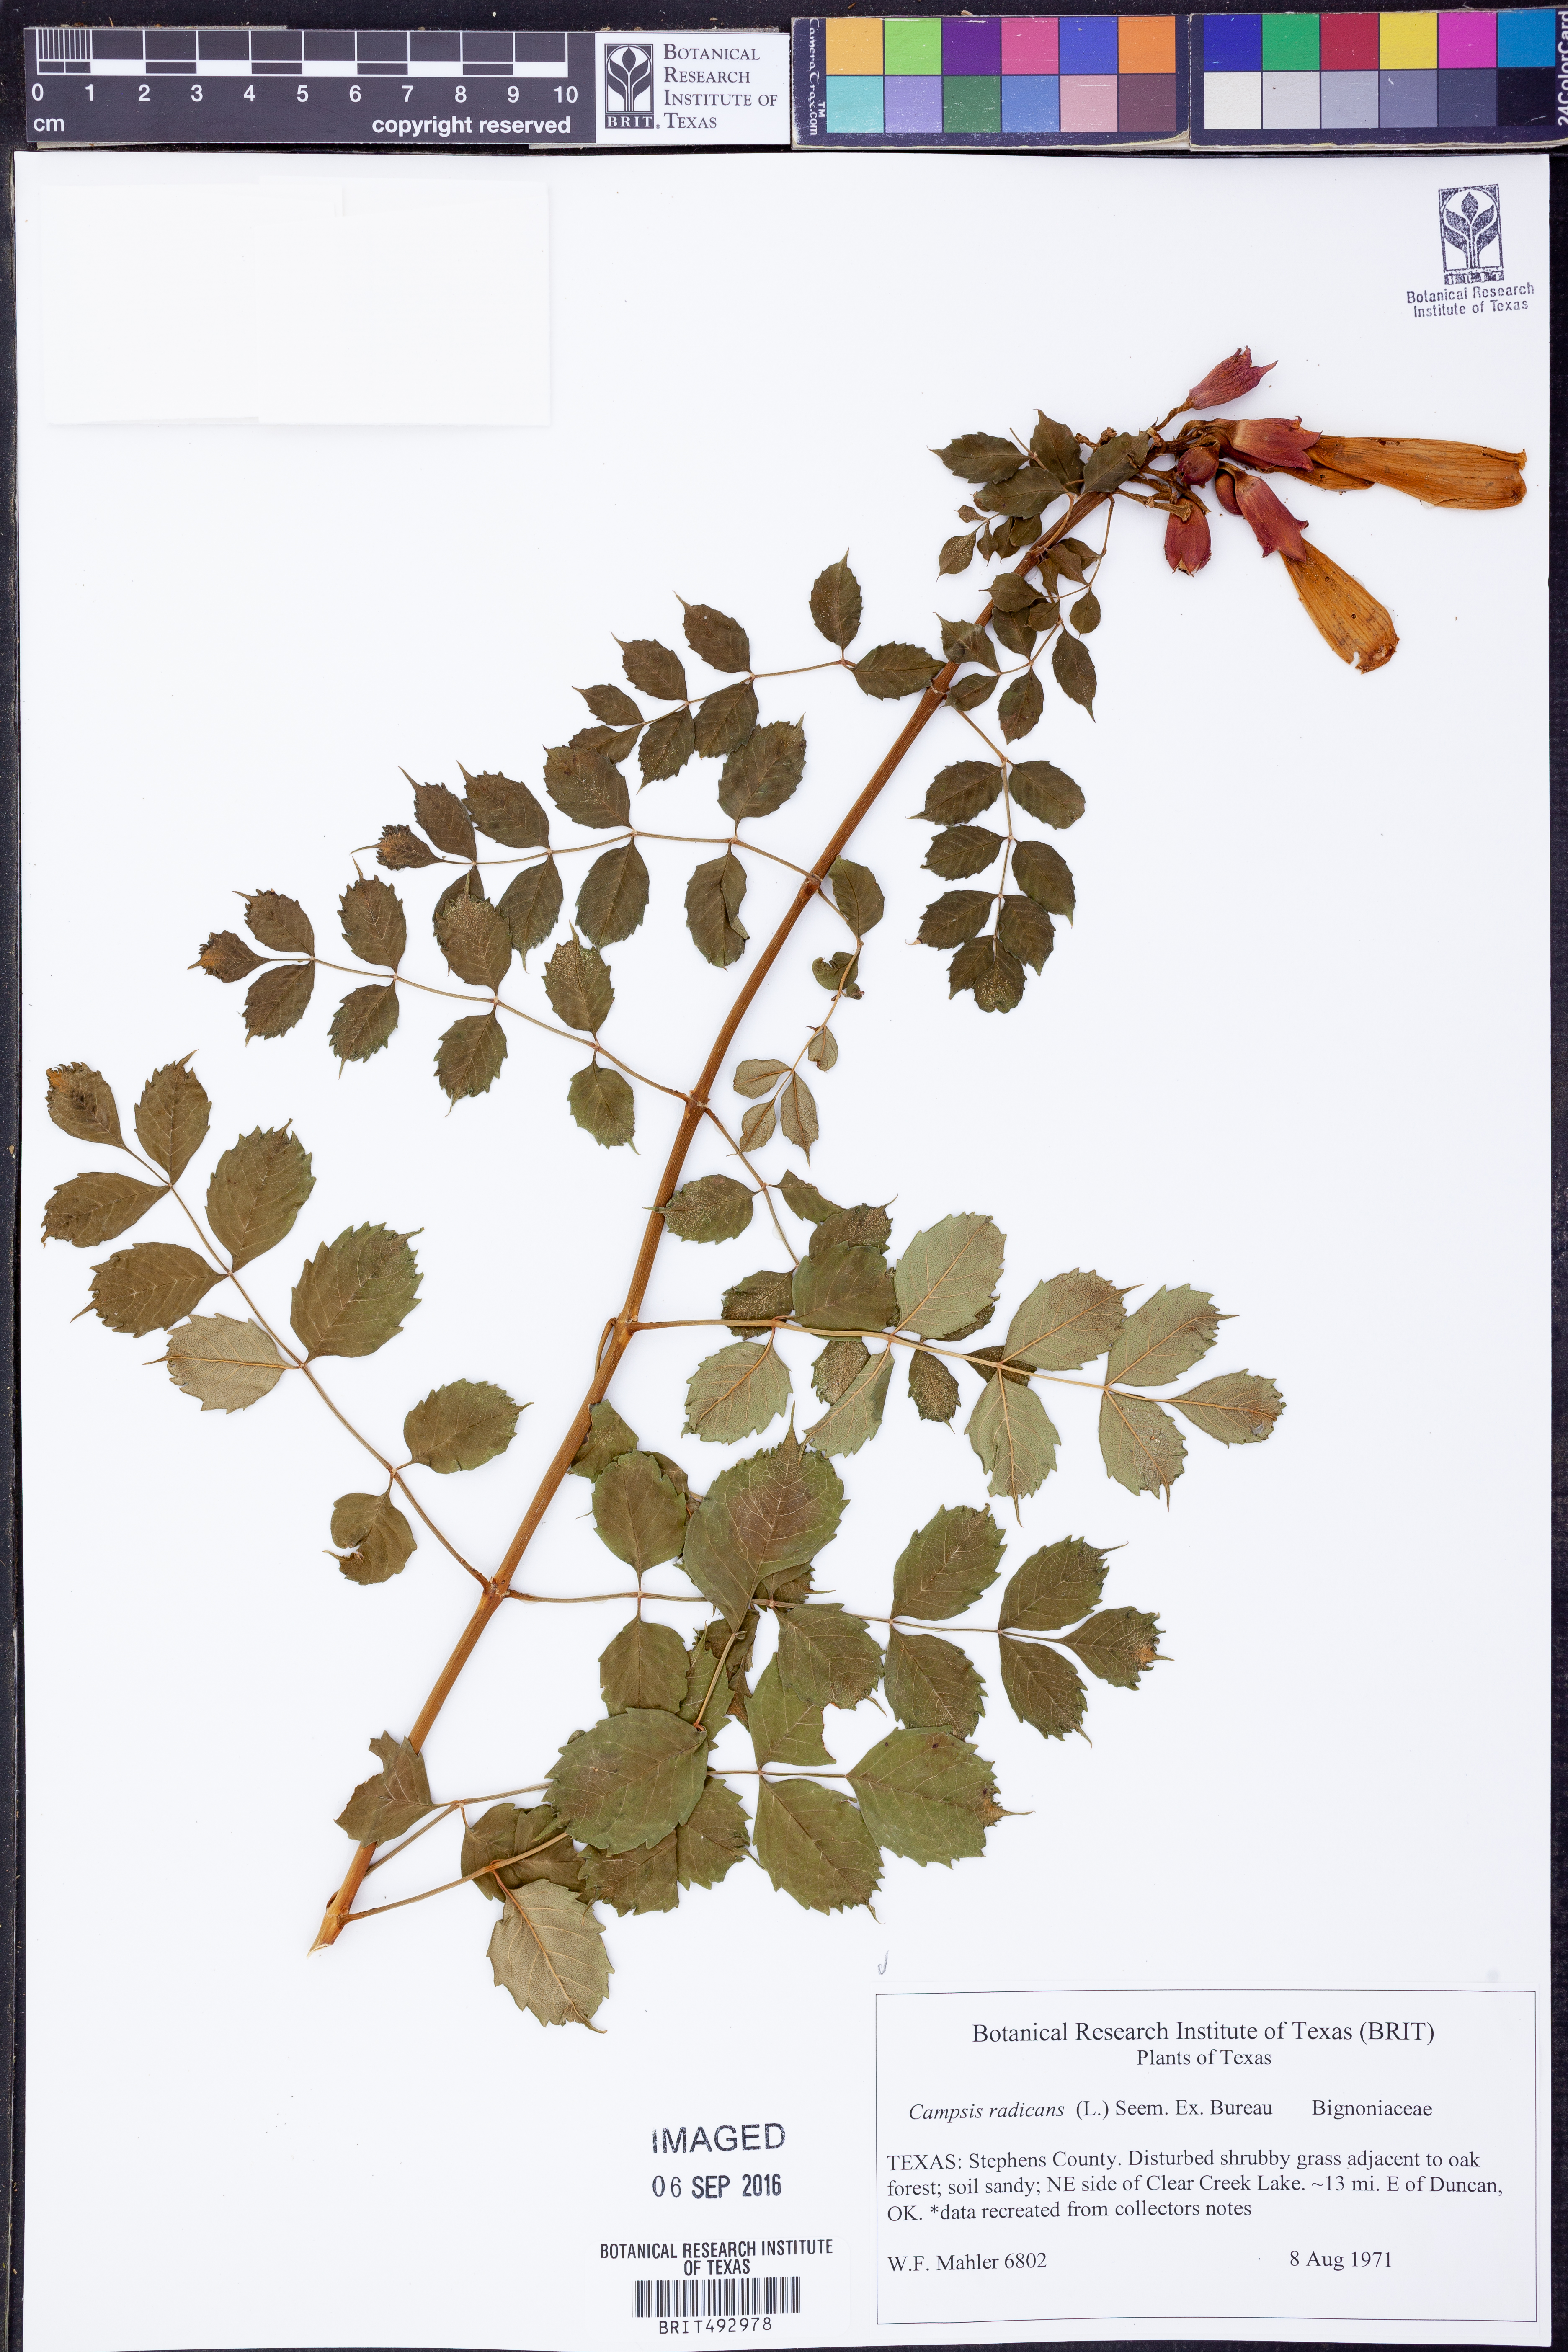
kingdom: Plantae
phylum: Tracheophyta
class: Magnoliopsida
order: Lamiales
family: Bignoniaceae
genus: Campsis
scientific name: Campsis radicans
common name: Trumpet-creeper
